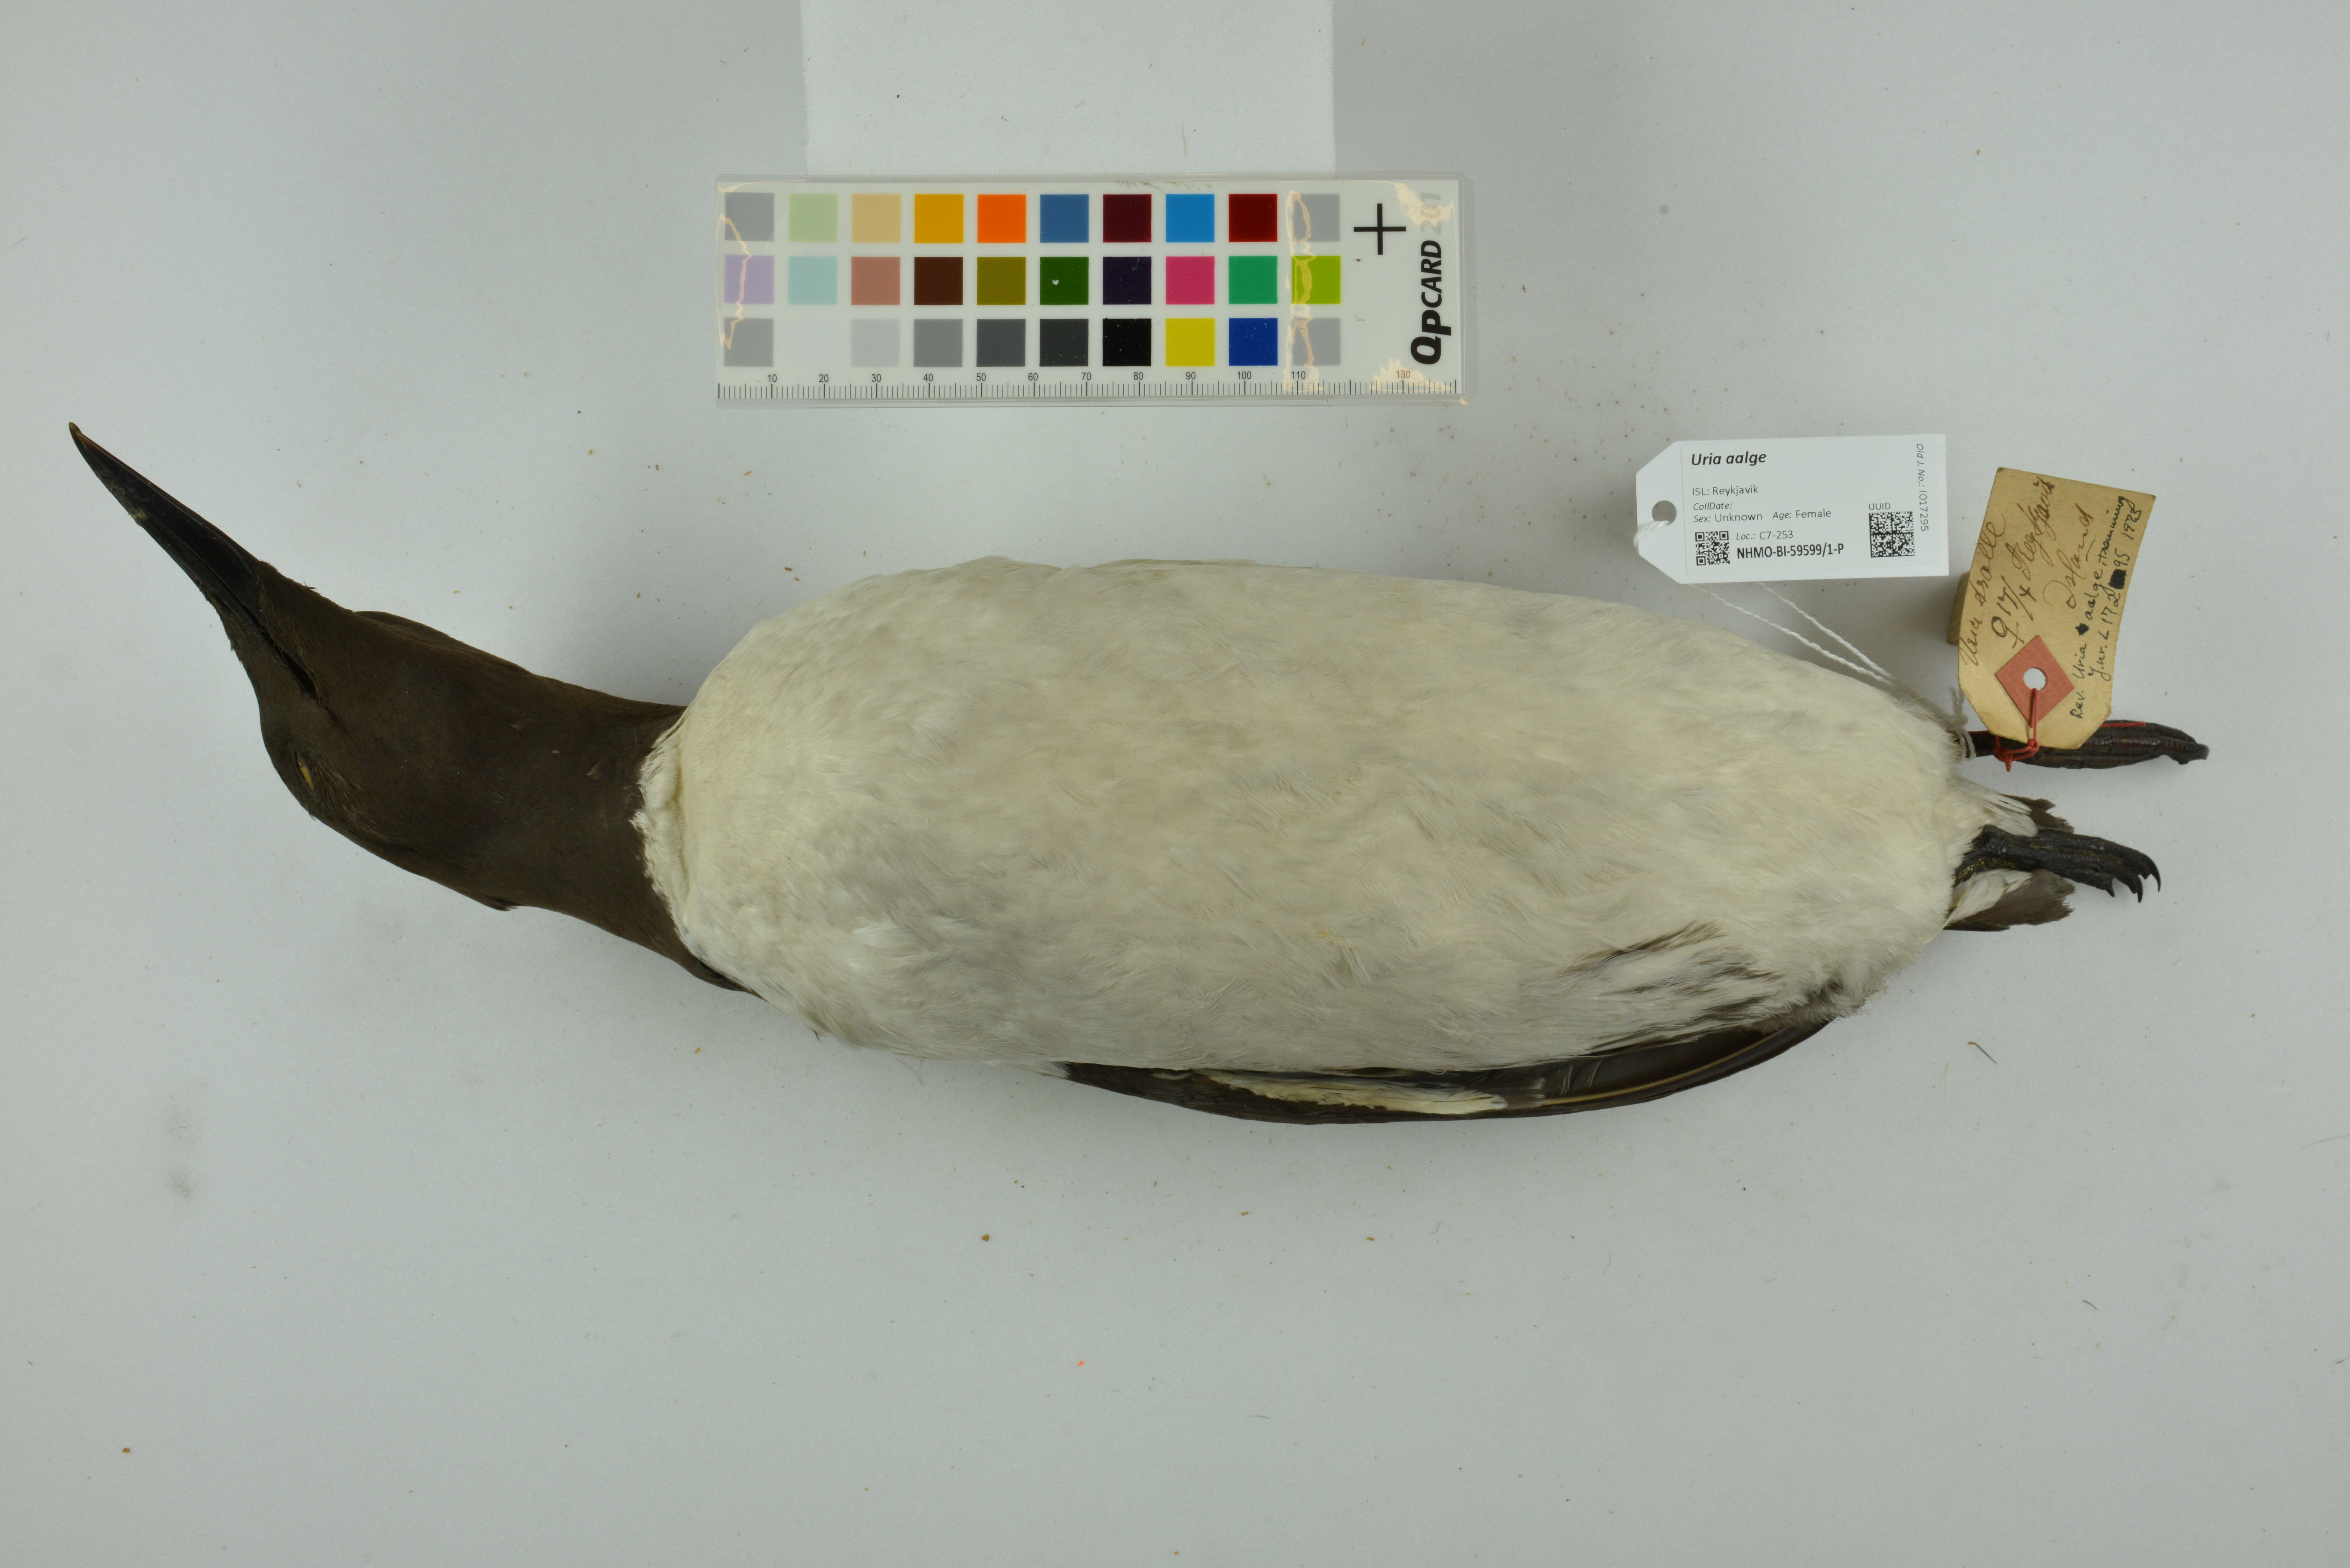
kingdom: Animalia
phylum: Chordata
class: Aves
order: Charadriiformes
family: Alcidae
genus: Uria
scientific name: Uria aalge
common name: Common murre
